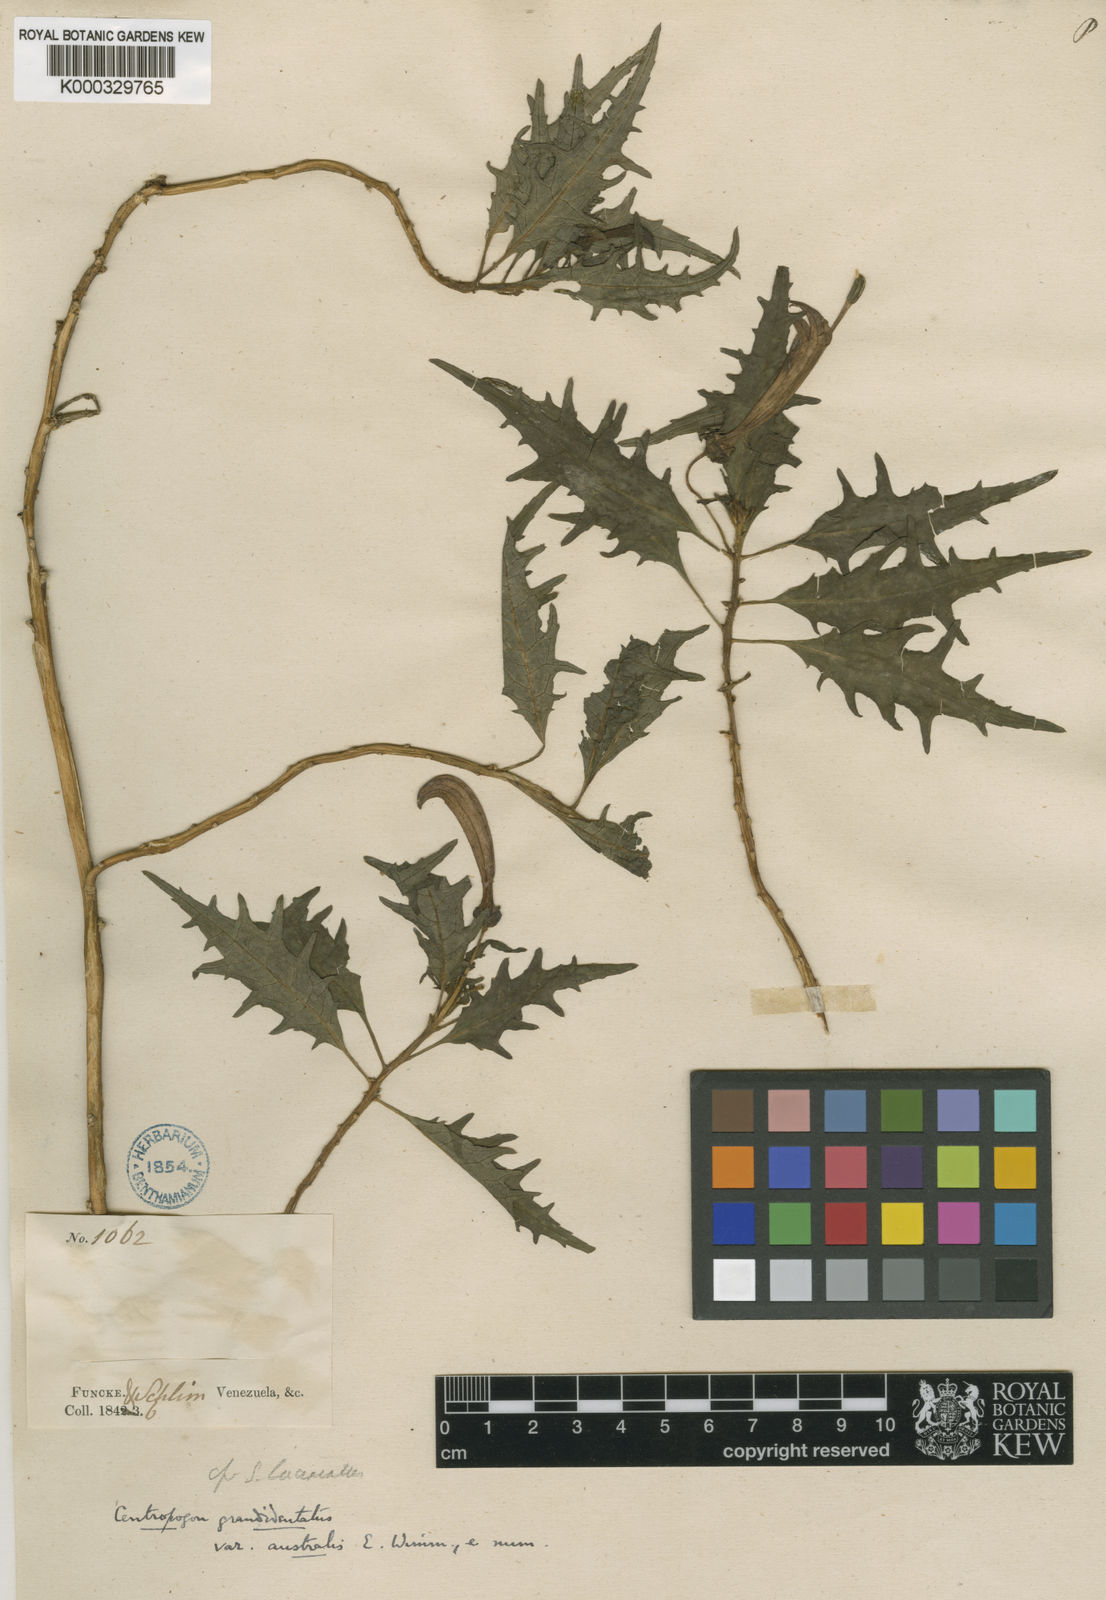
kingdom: Plantae
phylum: Tracheophyta
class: Magnoliopsida
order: Asterales
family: Campanulaceae
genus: Centropogon
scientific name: Centropogon australis
